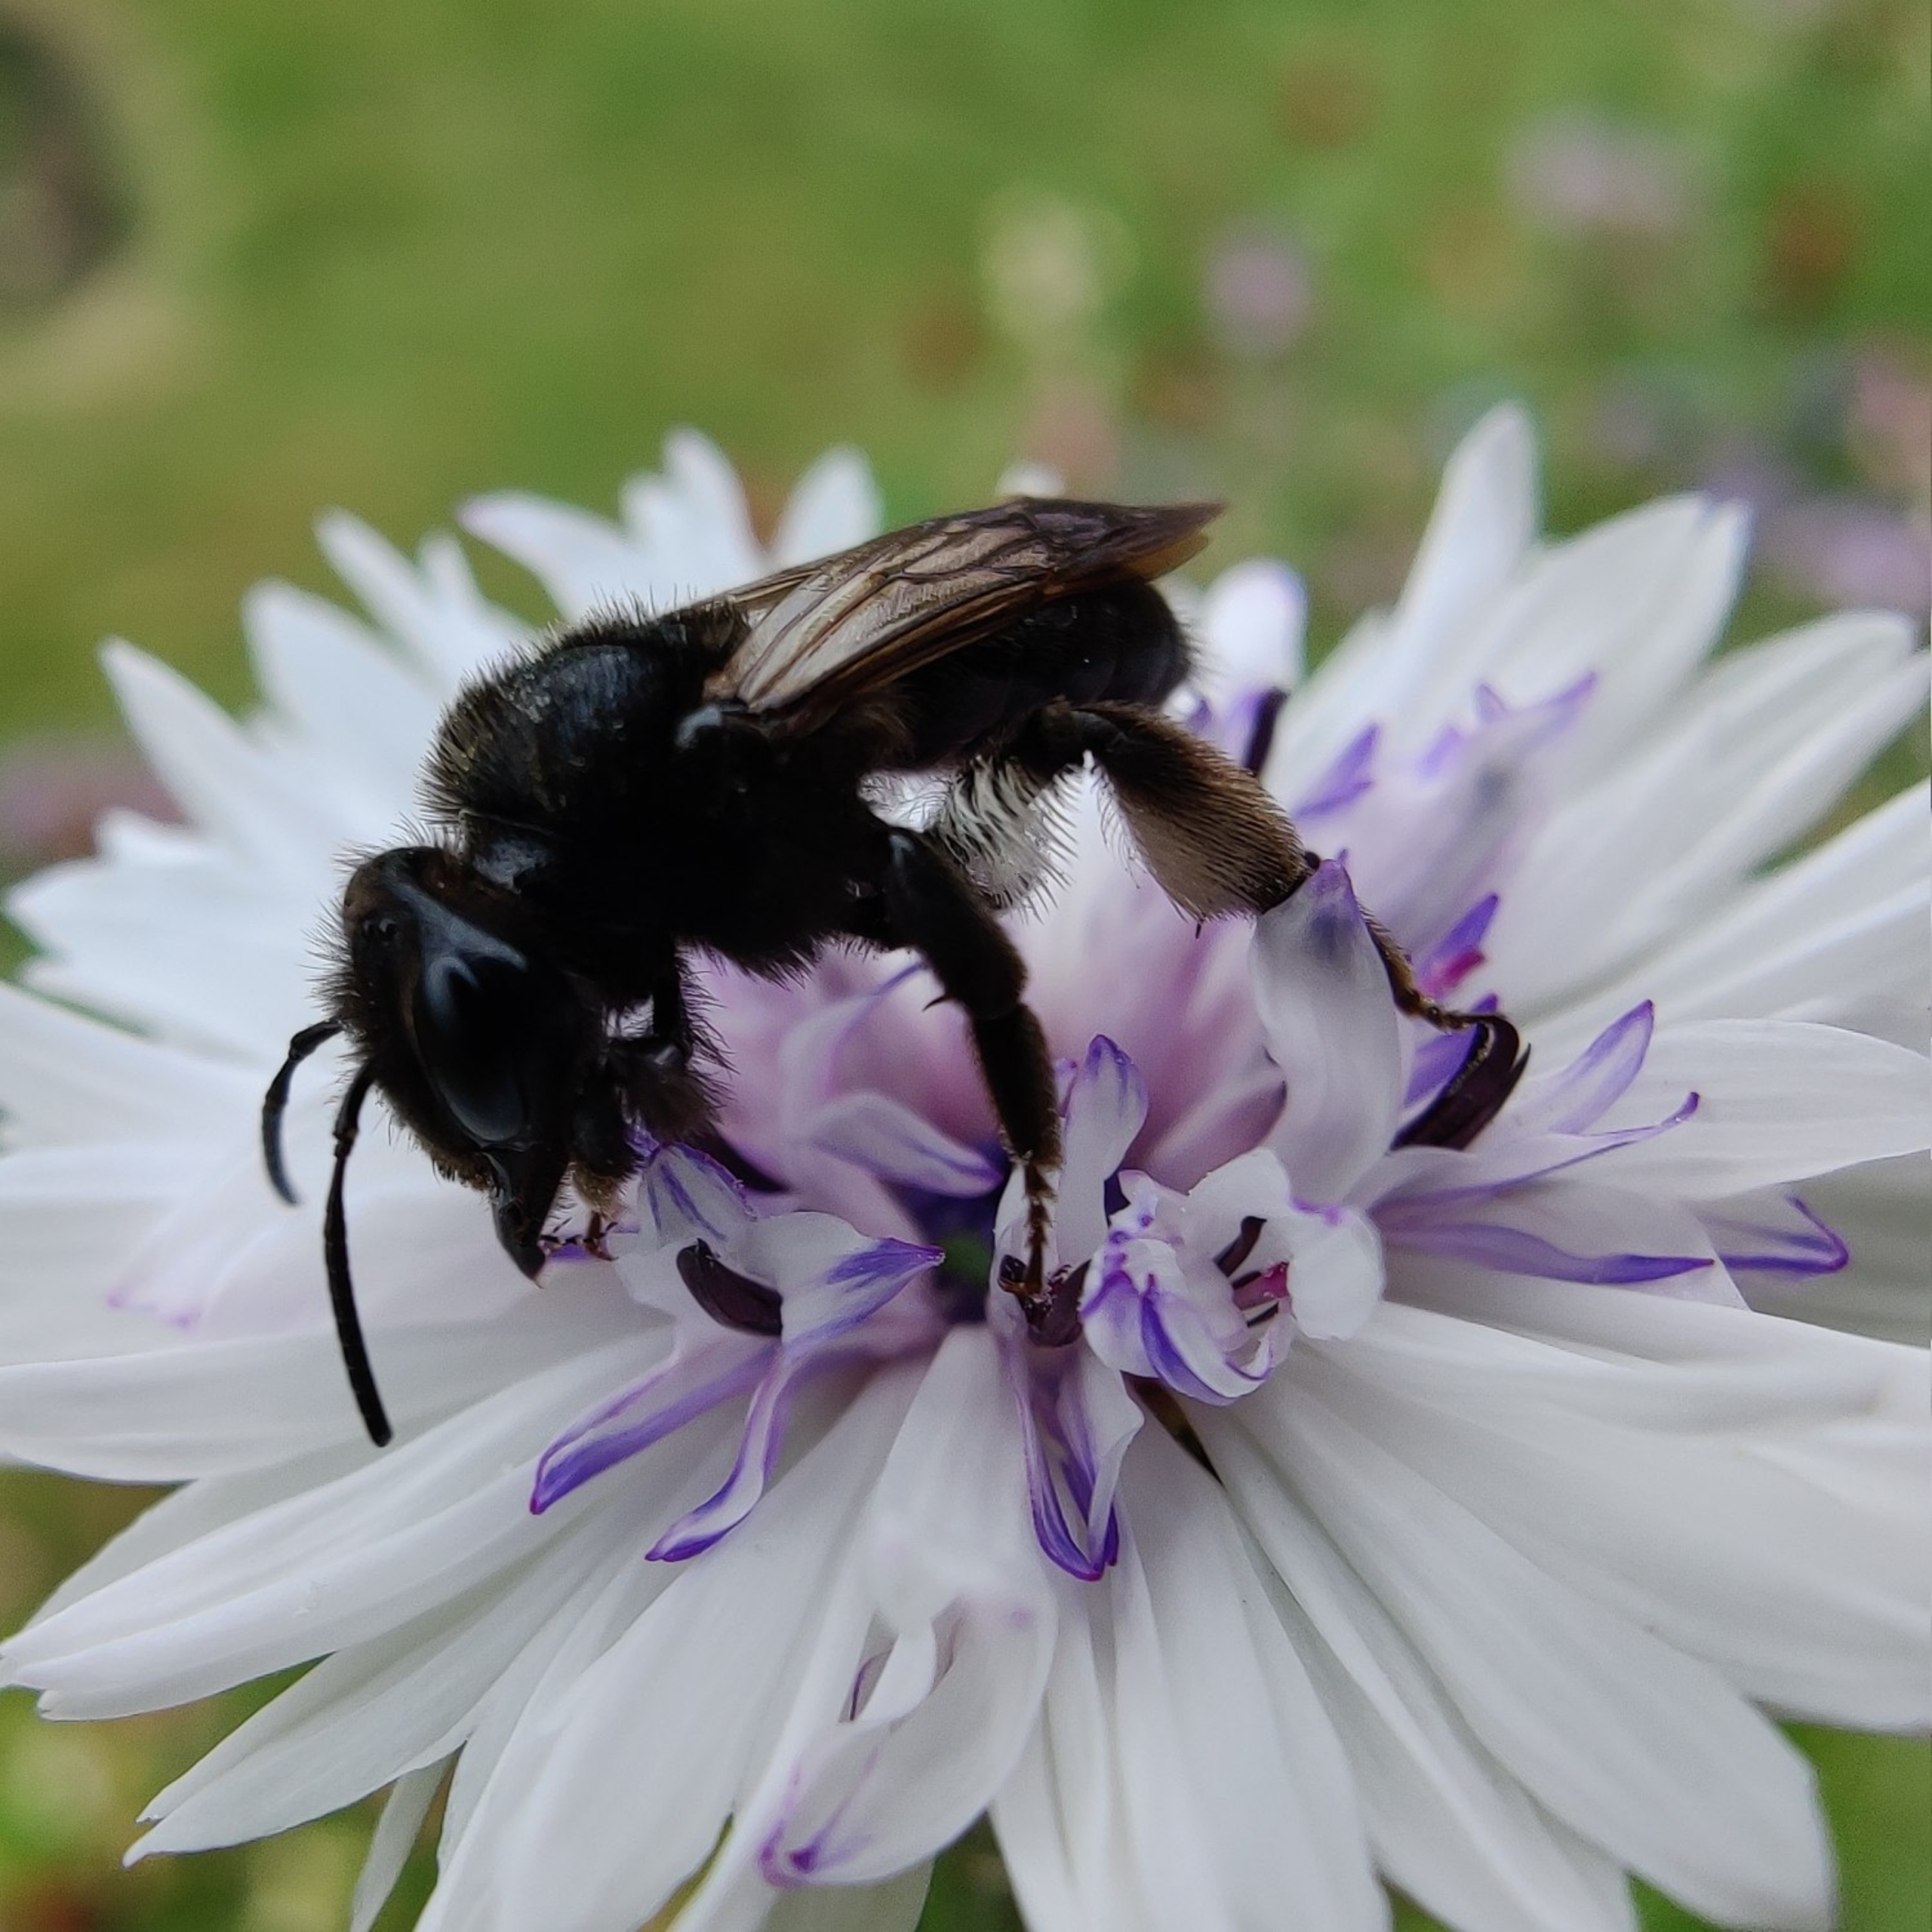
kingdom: Animalia
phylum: Arthropoda
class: Insecta
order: Hymenoptera
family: Andrenidae
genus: Andrena
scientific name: Andrena pilipes
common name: Sort jordbi
